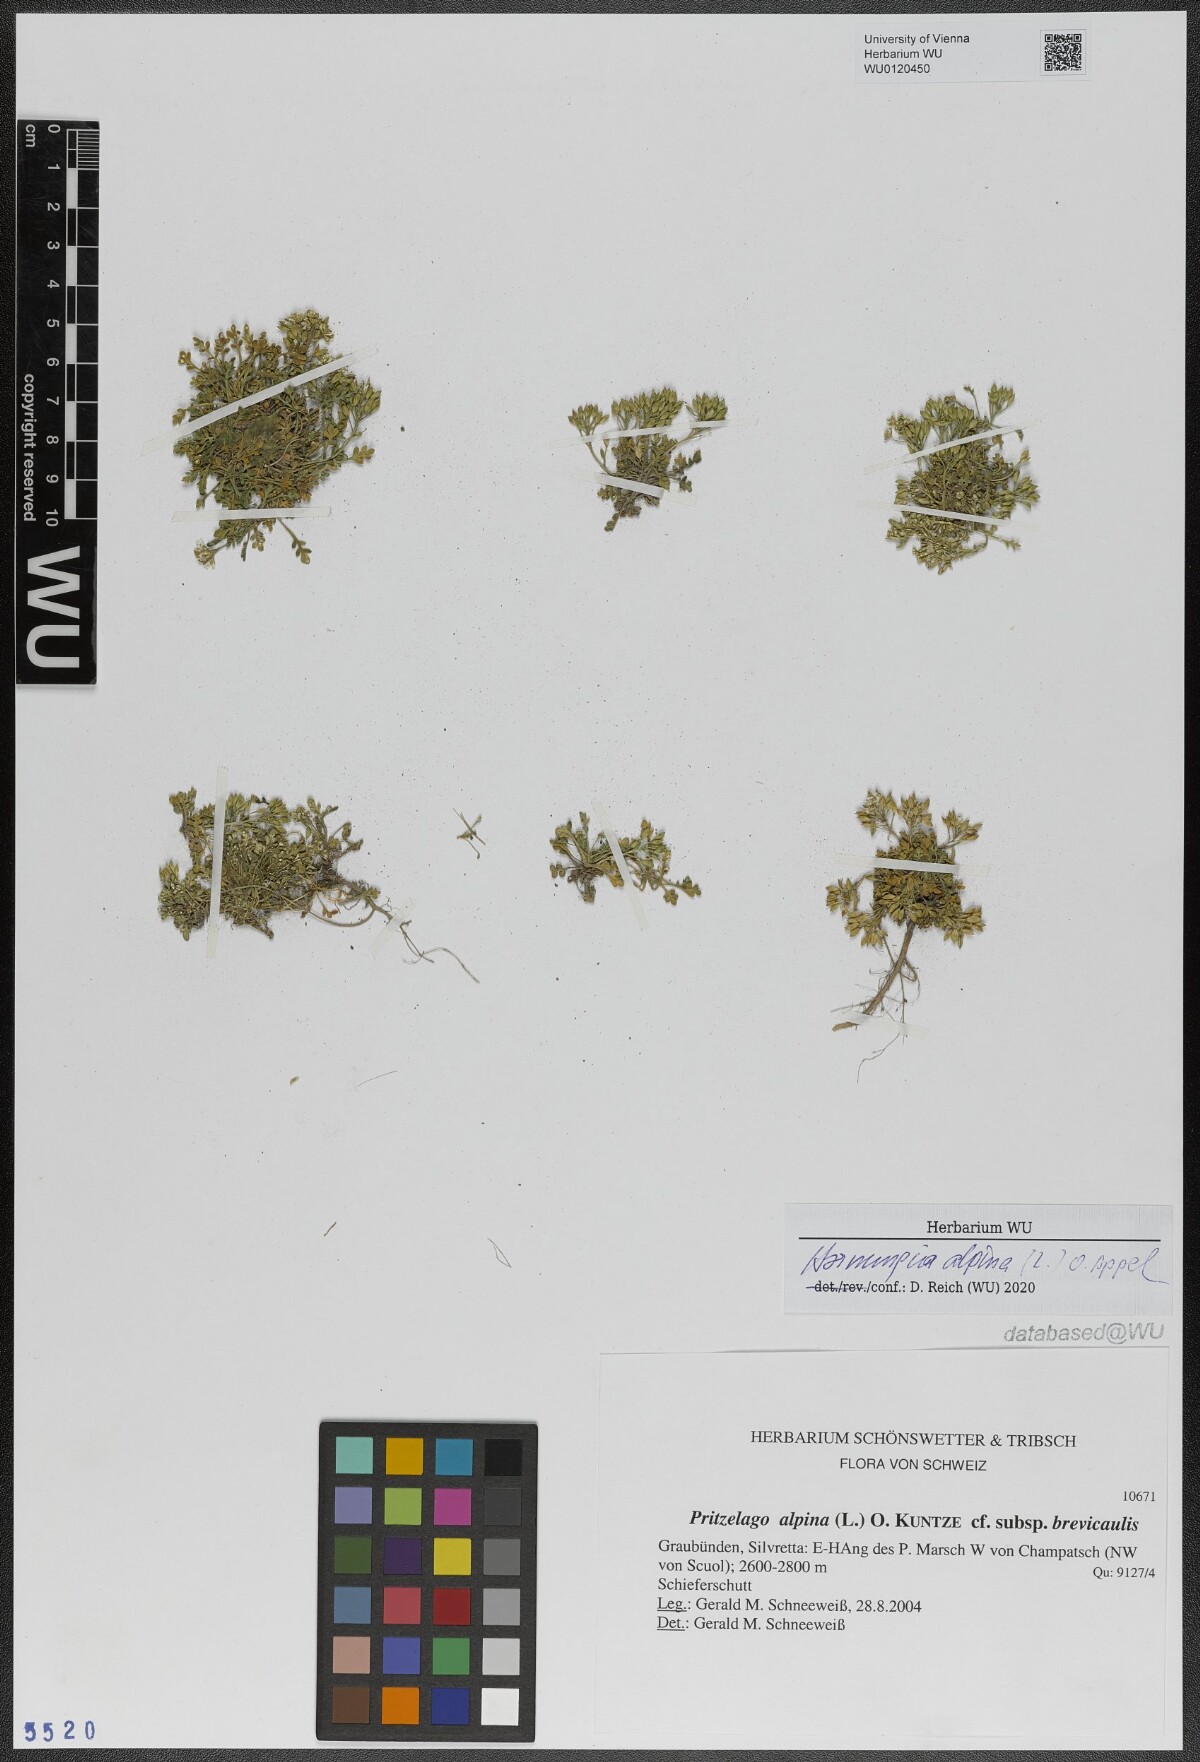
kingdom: Plantae
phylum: Tracheophyta
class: Magnoliopsida
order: Brassicales
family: Brassicaceae
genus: Hornungia
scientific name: Hornungia alpina
